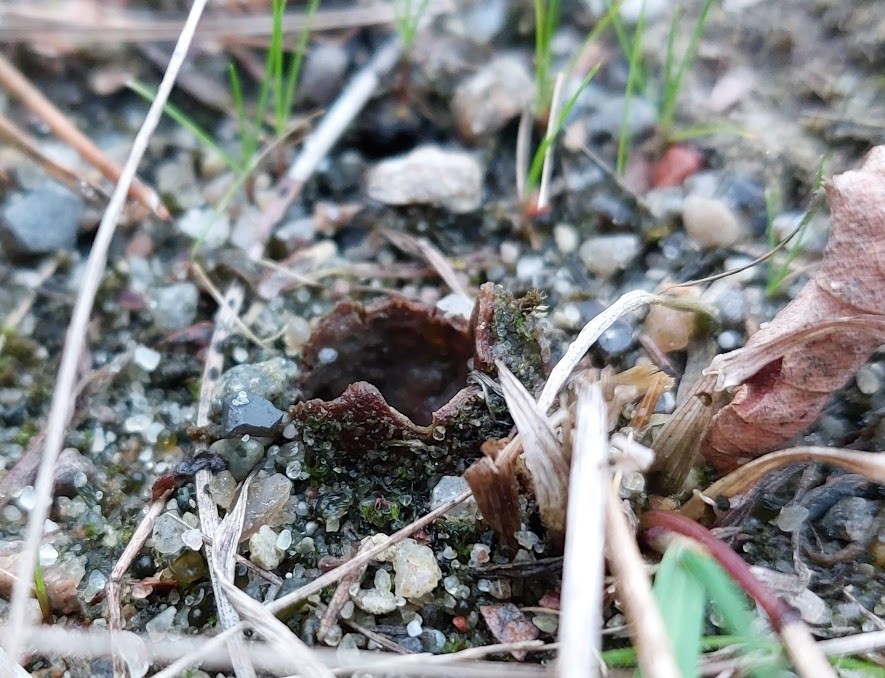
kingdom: Fungi
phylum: Ascomycota
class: Pezizomycetes
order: Pezizales
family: Pyronemataceae
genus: Geopora
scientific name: Geopora cervina
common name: hjortebrun jordbæger
